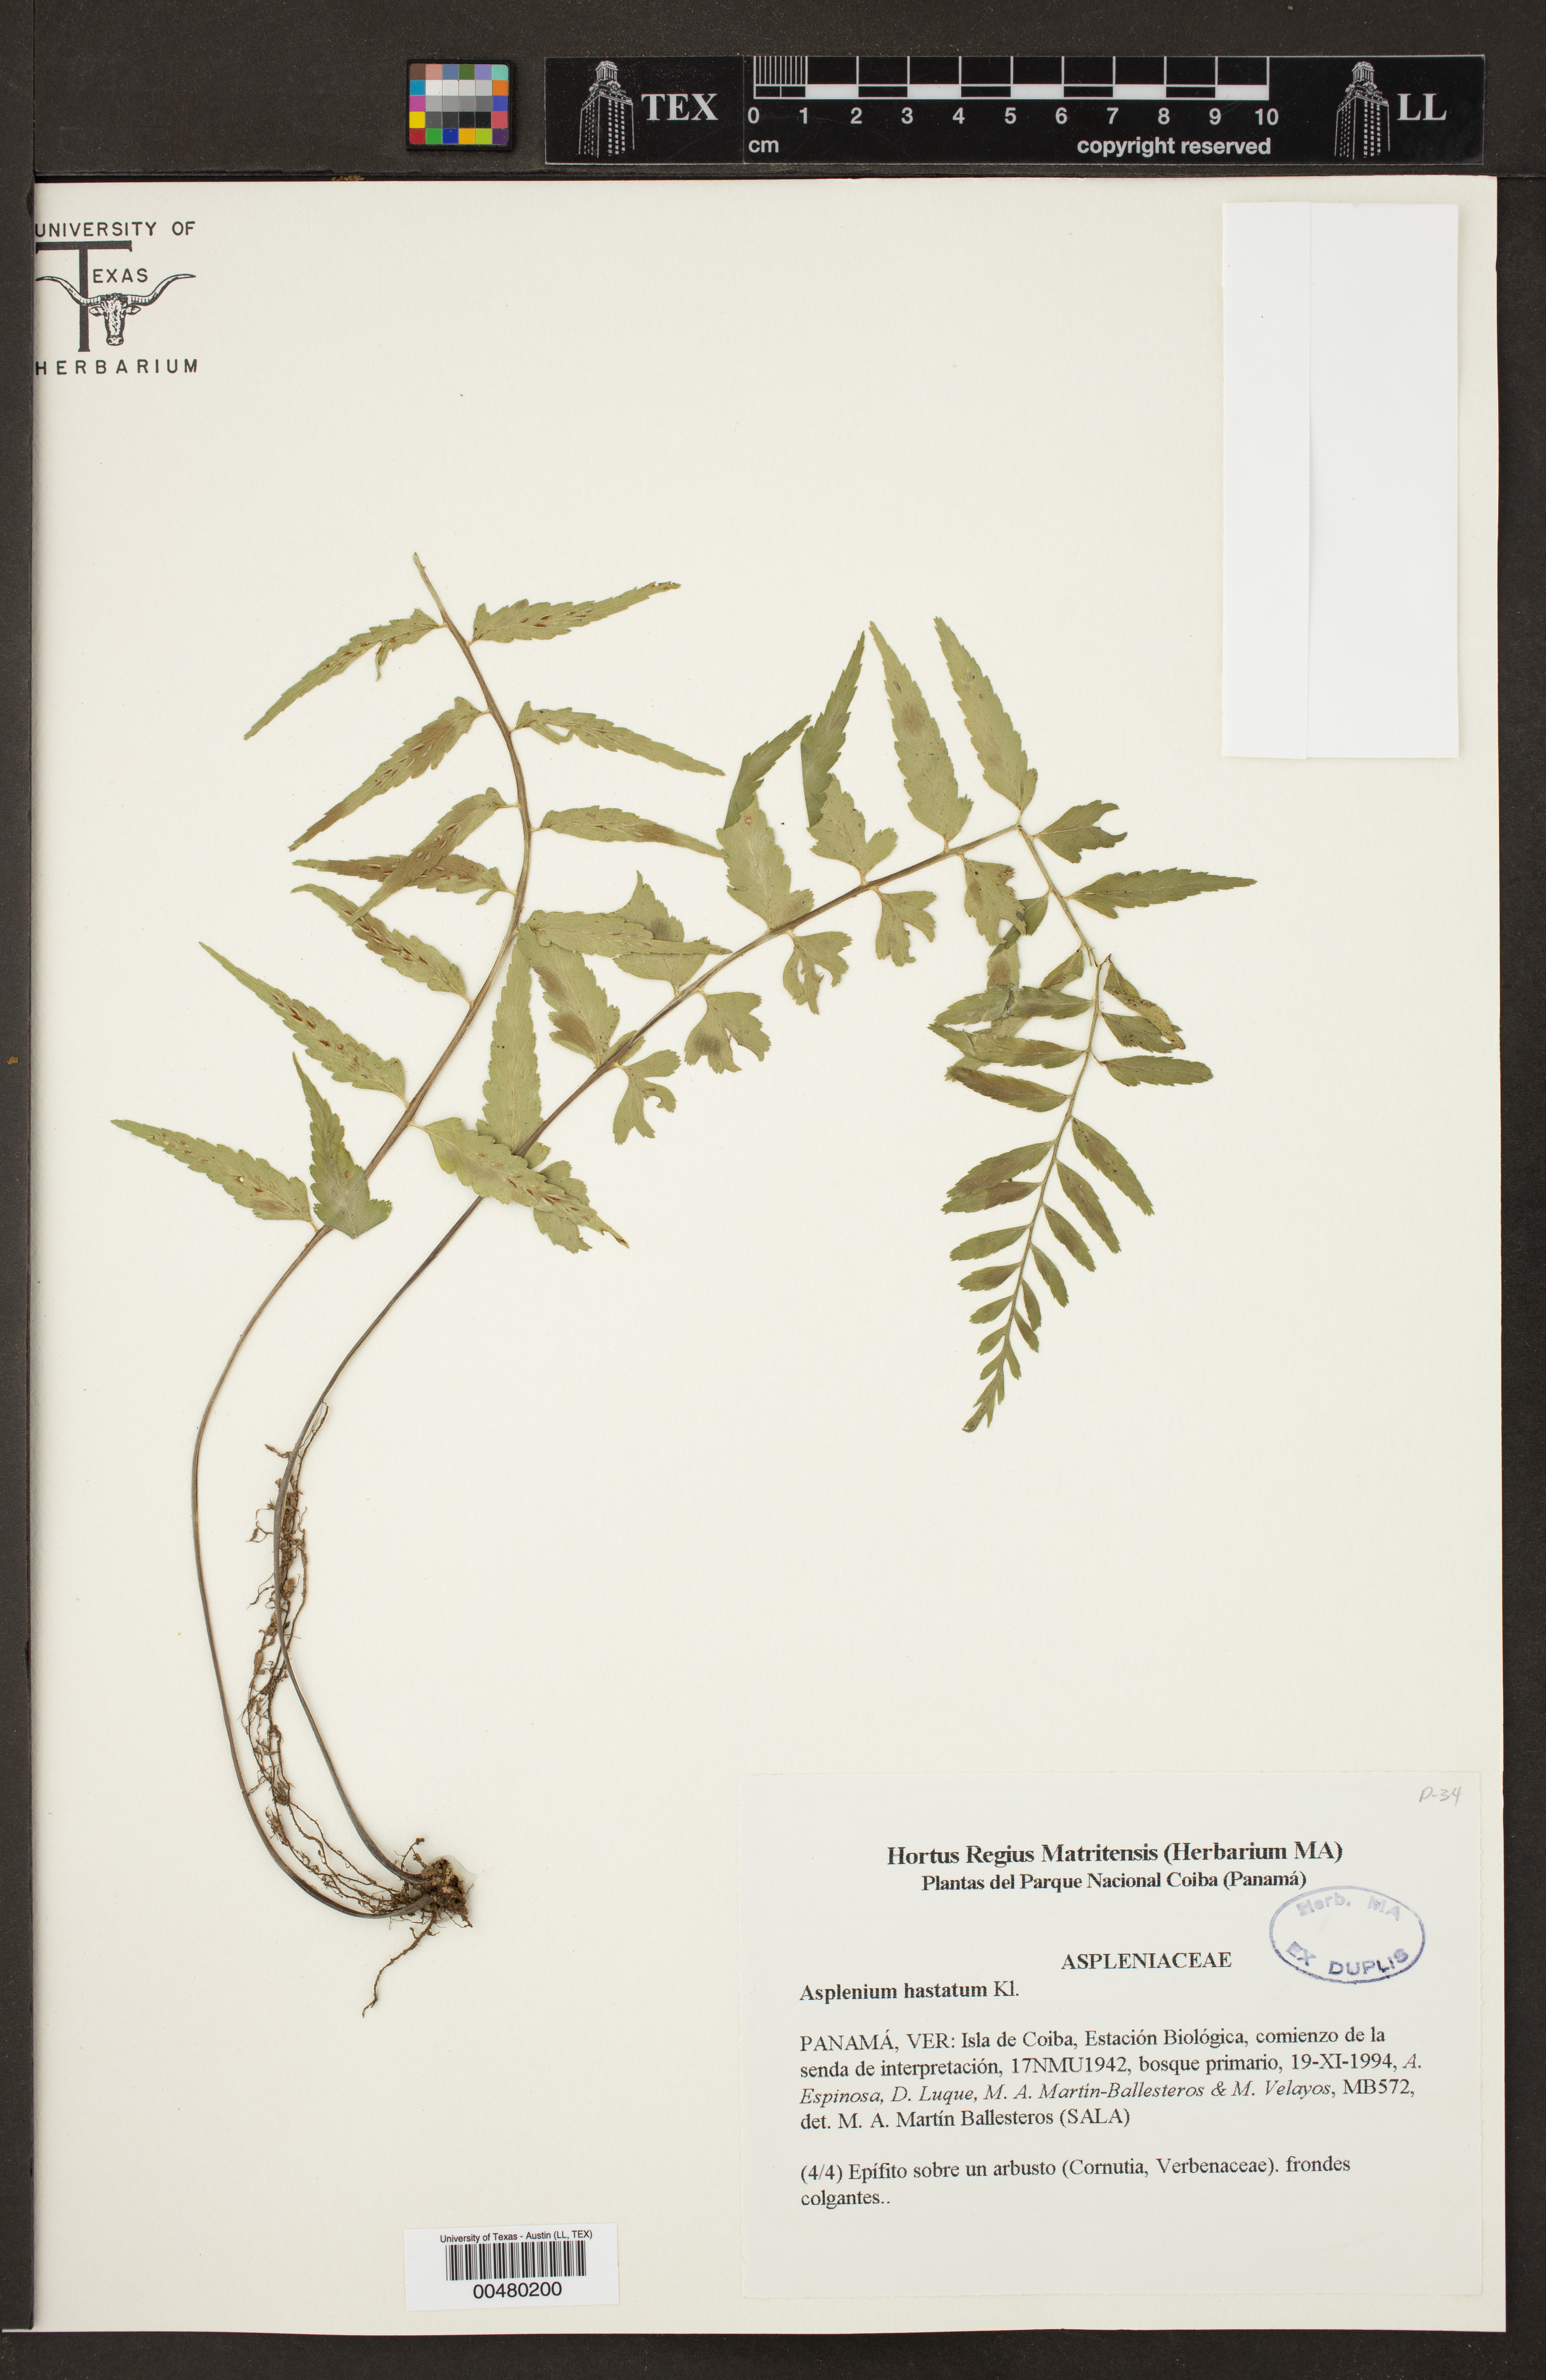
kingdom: Plantae
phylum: Tracheophyta
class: Polypodiopsida
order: Polypodiales
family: Aspleniaceae
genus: Asplenium
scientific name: Asplenium hastatum
